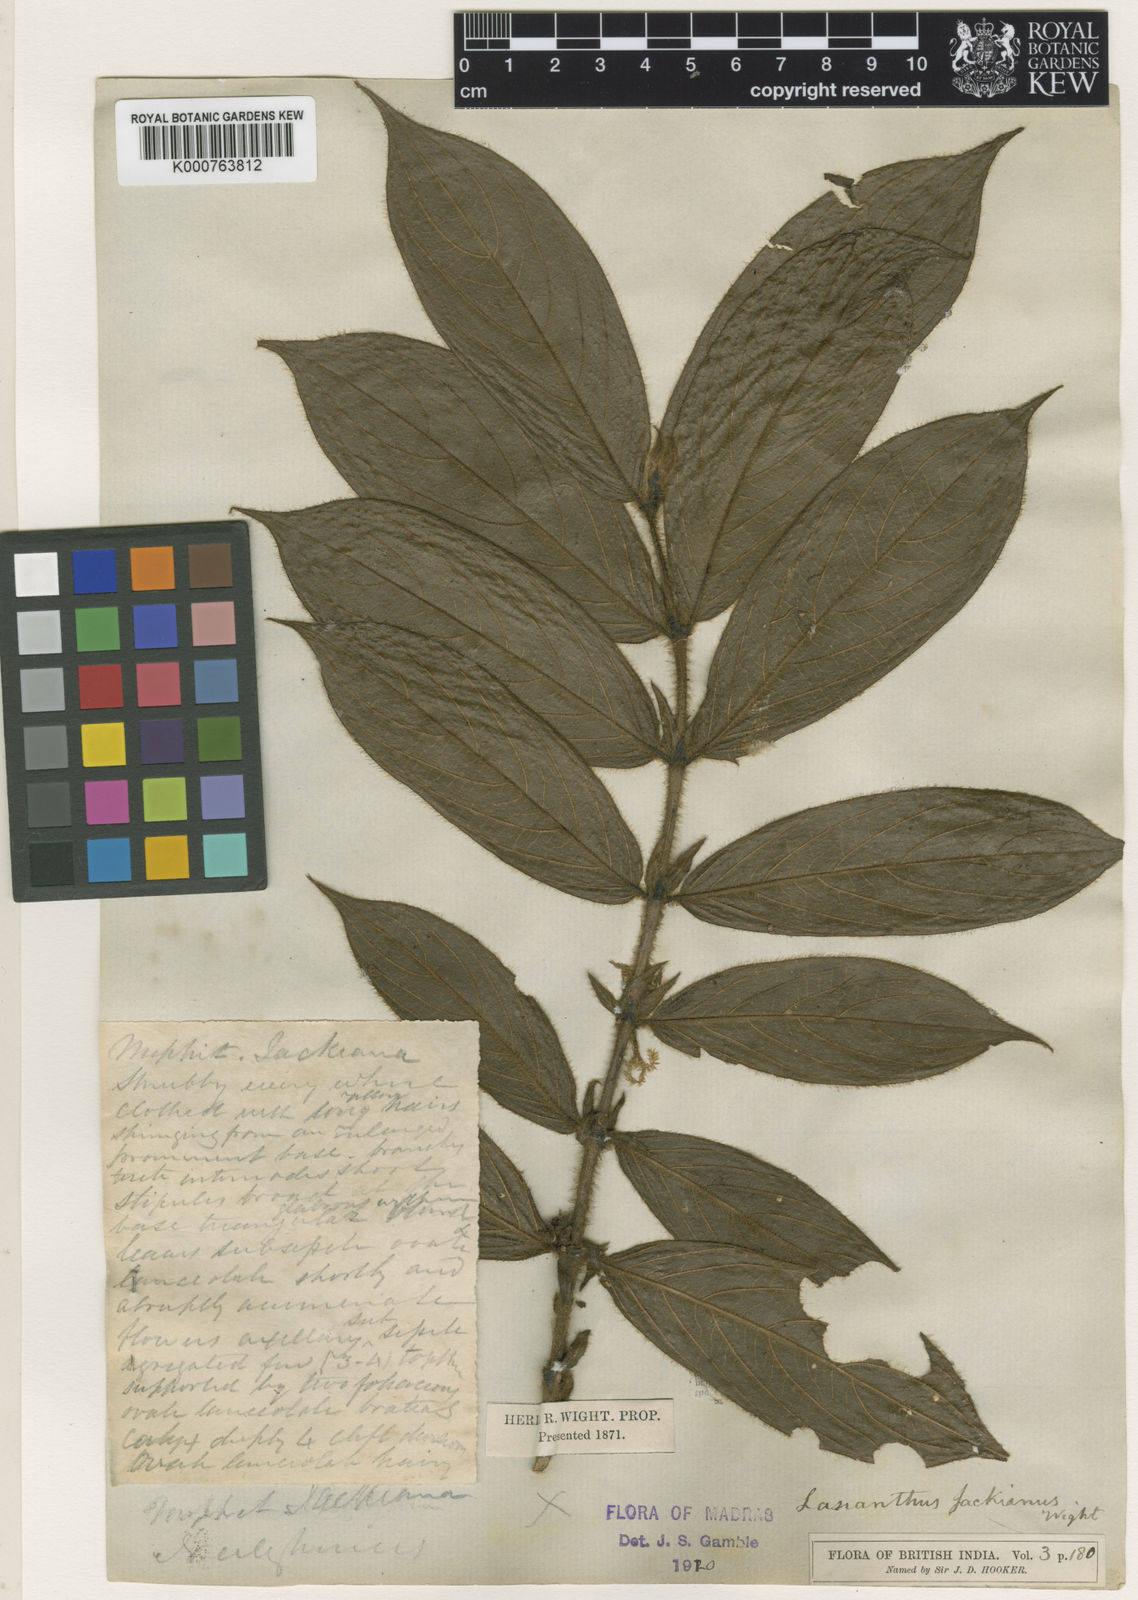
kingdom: Plantae
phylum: Tracheophyta
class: Magnoliopsida
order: Gentianales
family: Rubiaceae
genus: Lasianthus
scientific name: Lasianthus jackianus
